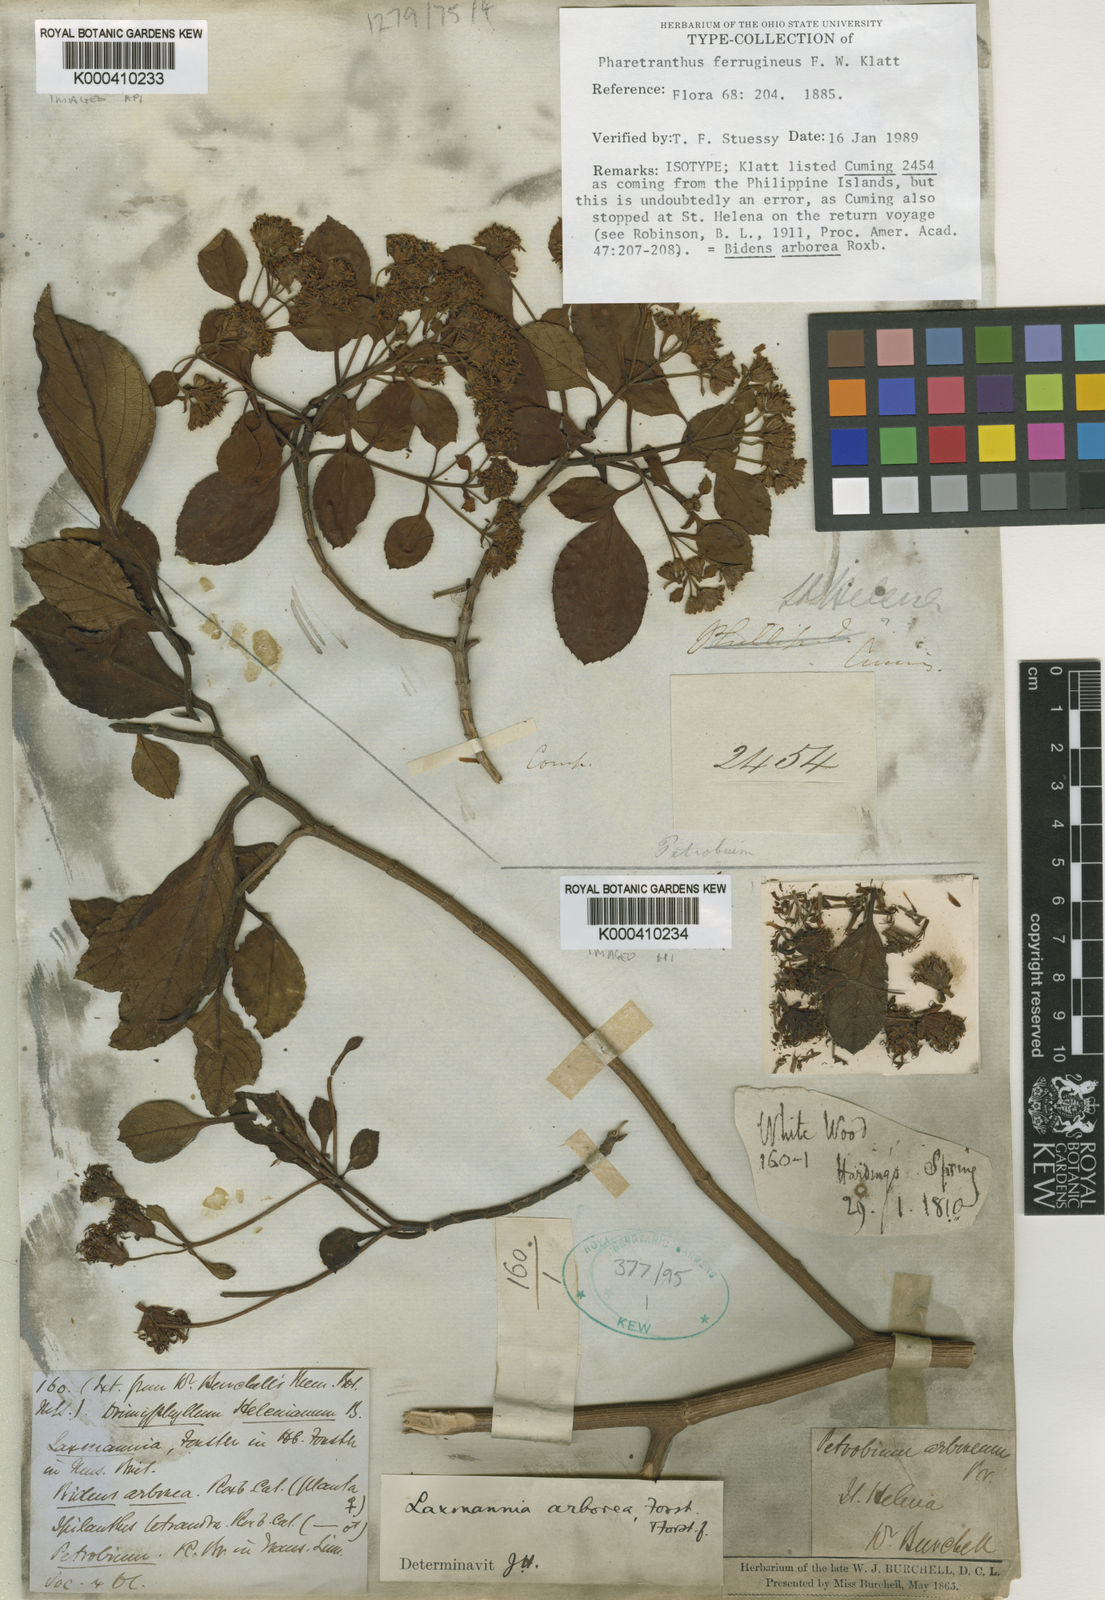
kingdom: Plantae
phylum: Tracheophyta
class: Magnoliopsida
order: Asterales
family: Asteraceae
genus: Petrobium
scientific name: Petrobium
